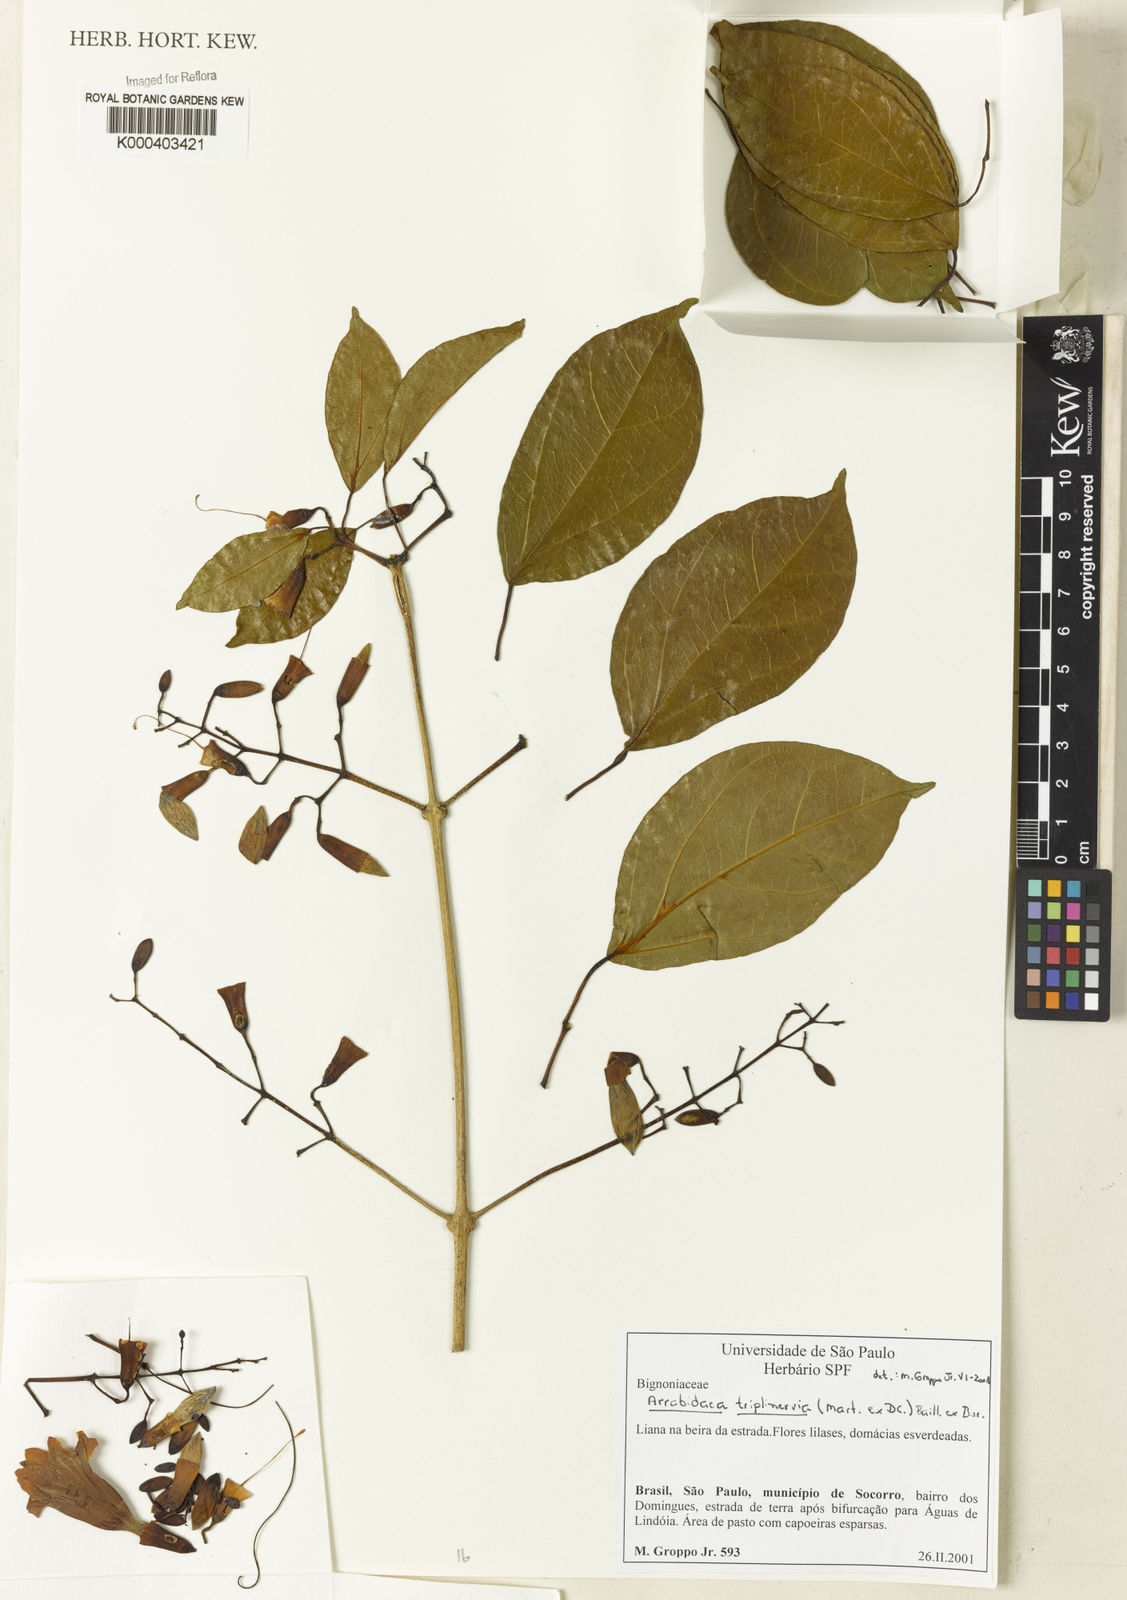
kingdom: Plantae
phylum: Tracheophyta
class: Magnoliopsida
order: Rosales
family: Rhamnaceae
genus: Arrabidaea
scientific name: Arrabidaea
